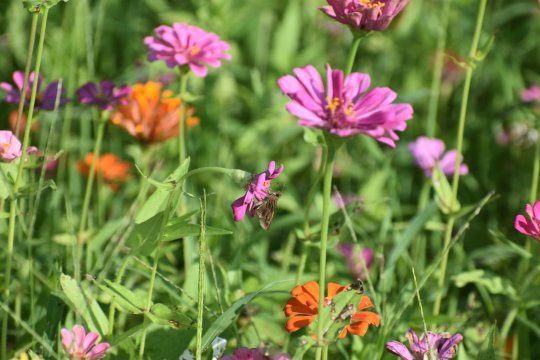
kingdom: Animalia
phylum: Arthropoda
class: Insecta
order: Lepidoptera
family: Hesperiidae
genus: Lerema
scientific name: Lerema accius
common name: Clouded Skipper
